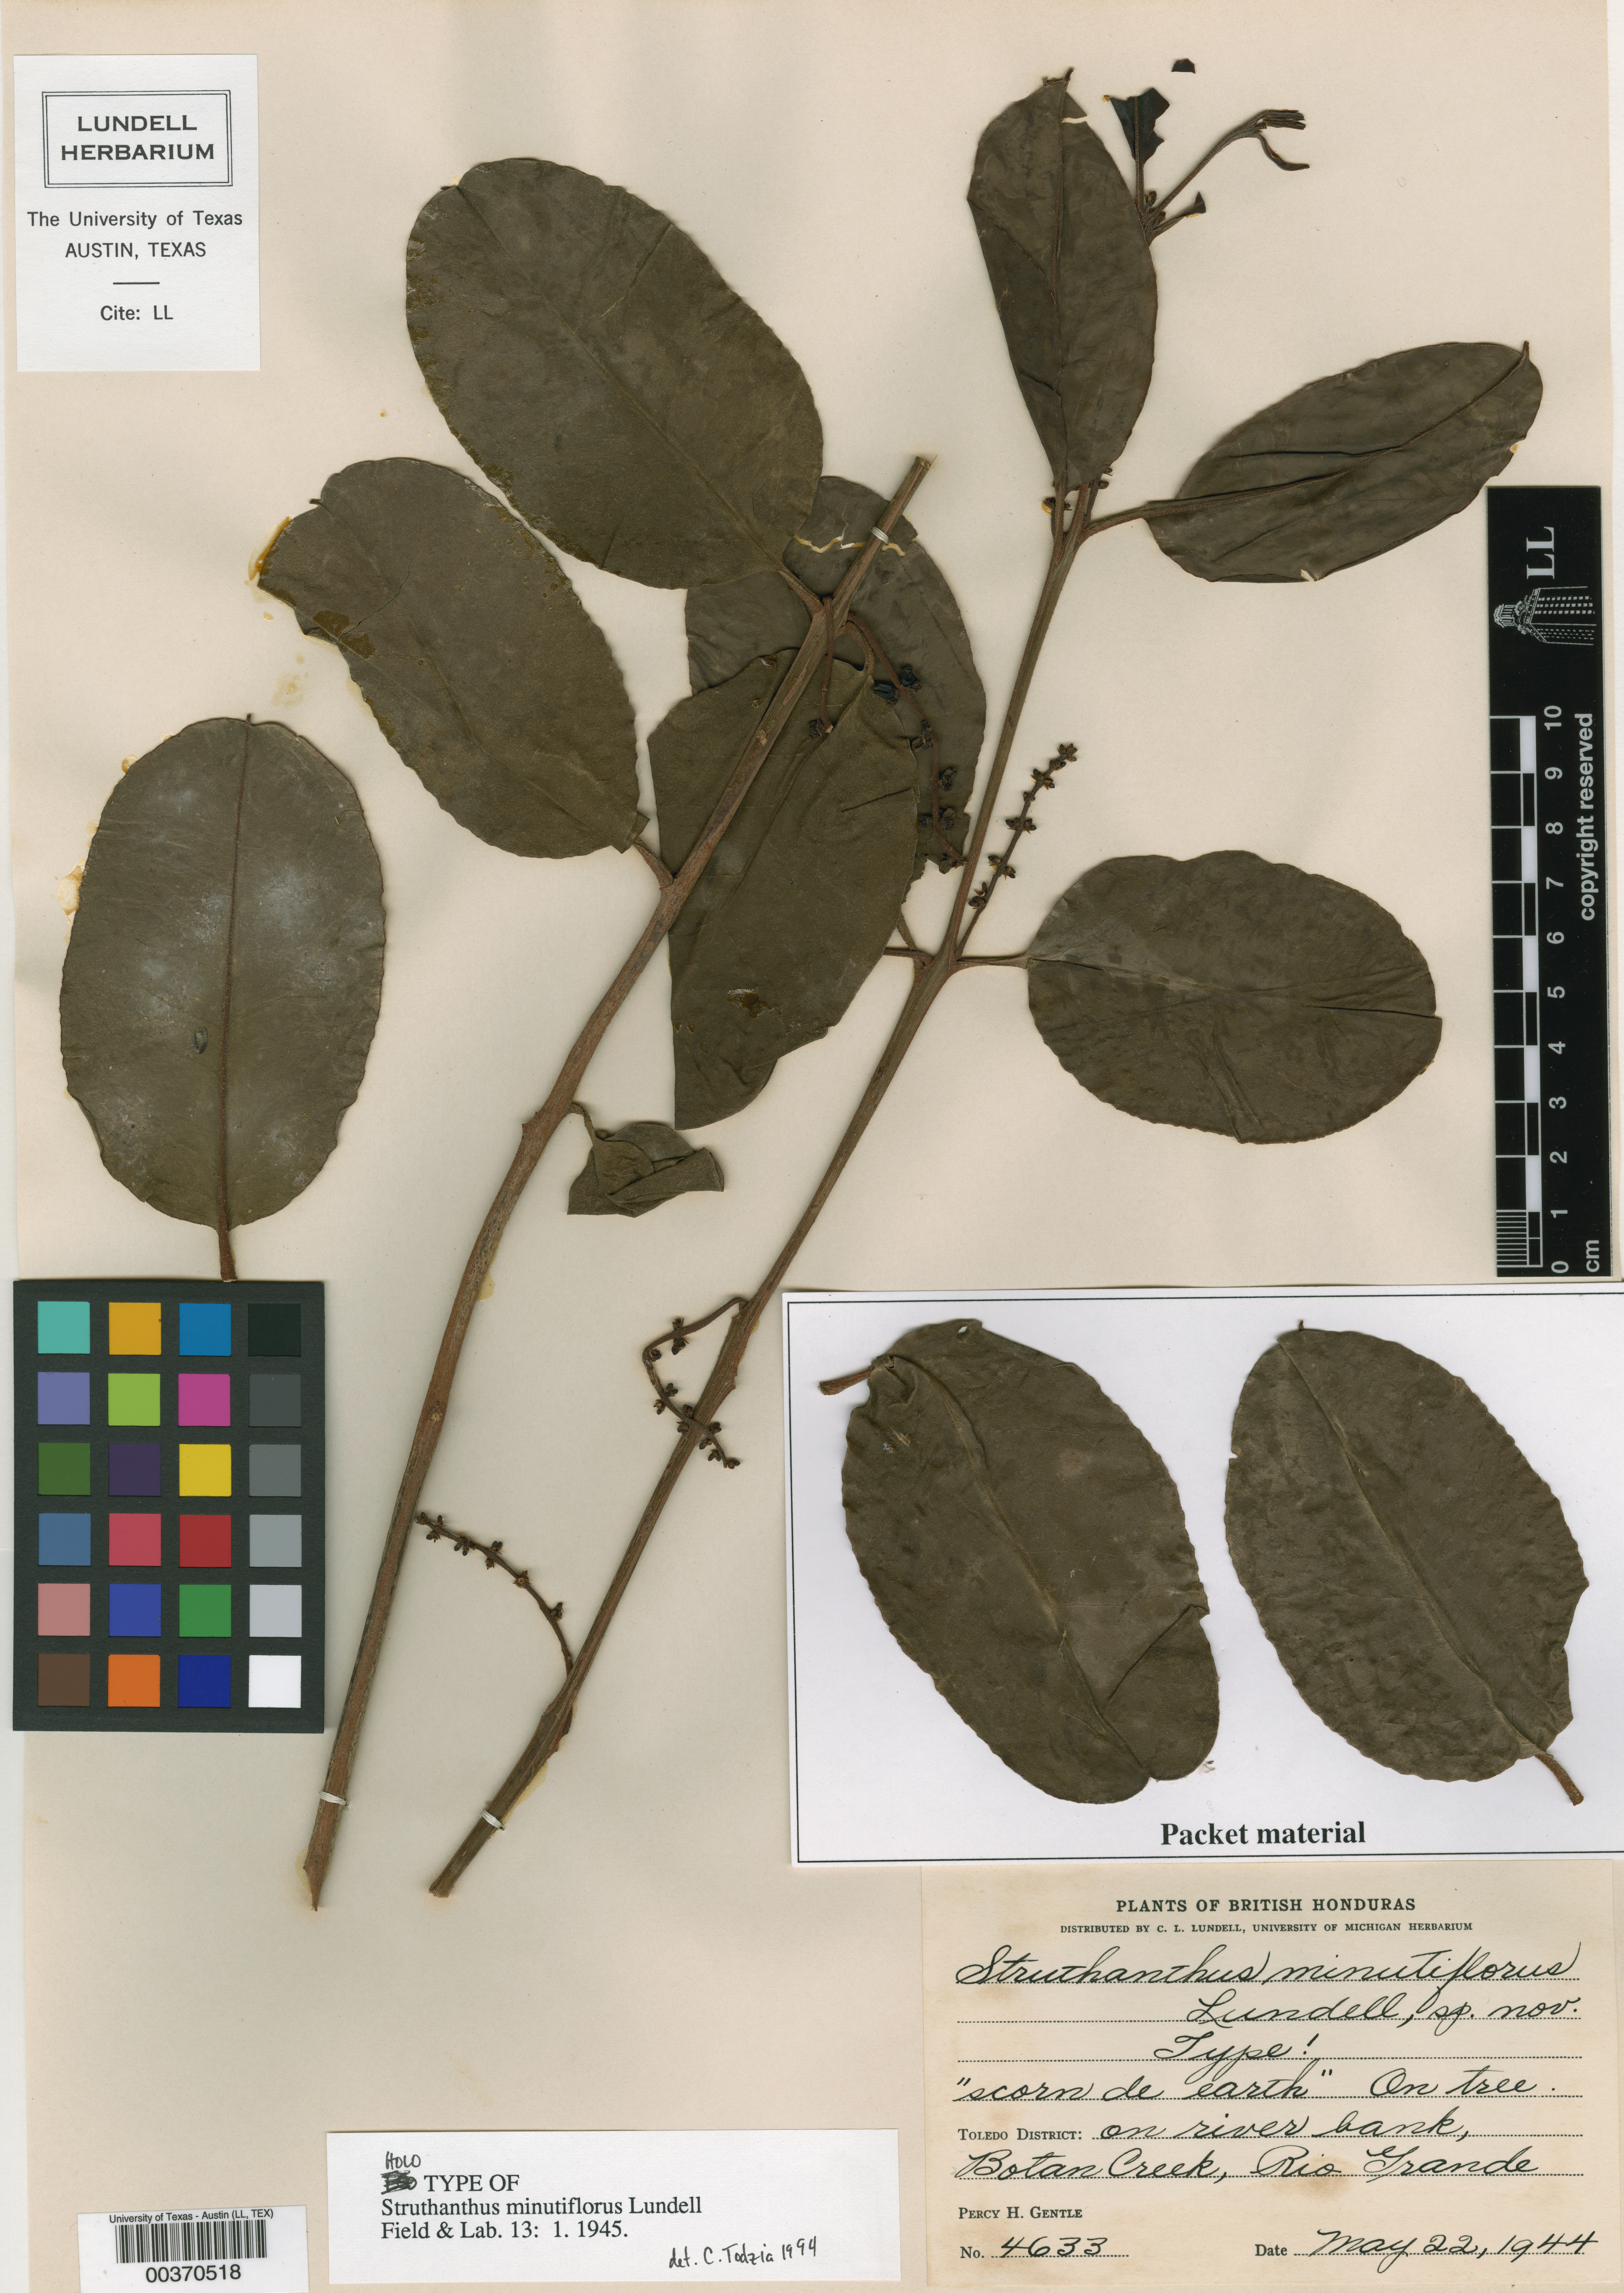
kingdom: Plantae
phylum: Tracheophyta
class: Magnoliopsida
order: Santalales
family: Loranthaceae
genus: Passovia
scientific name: Passovia pyrifolia
